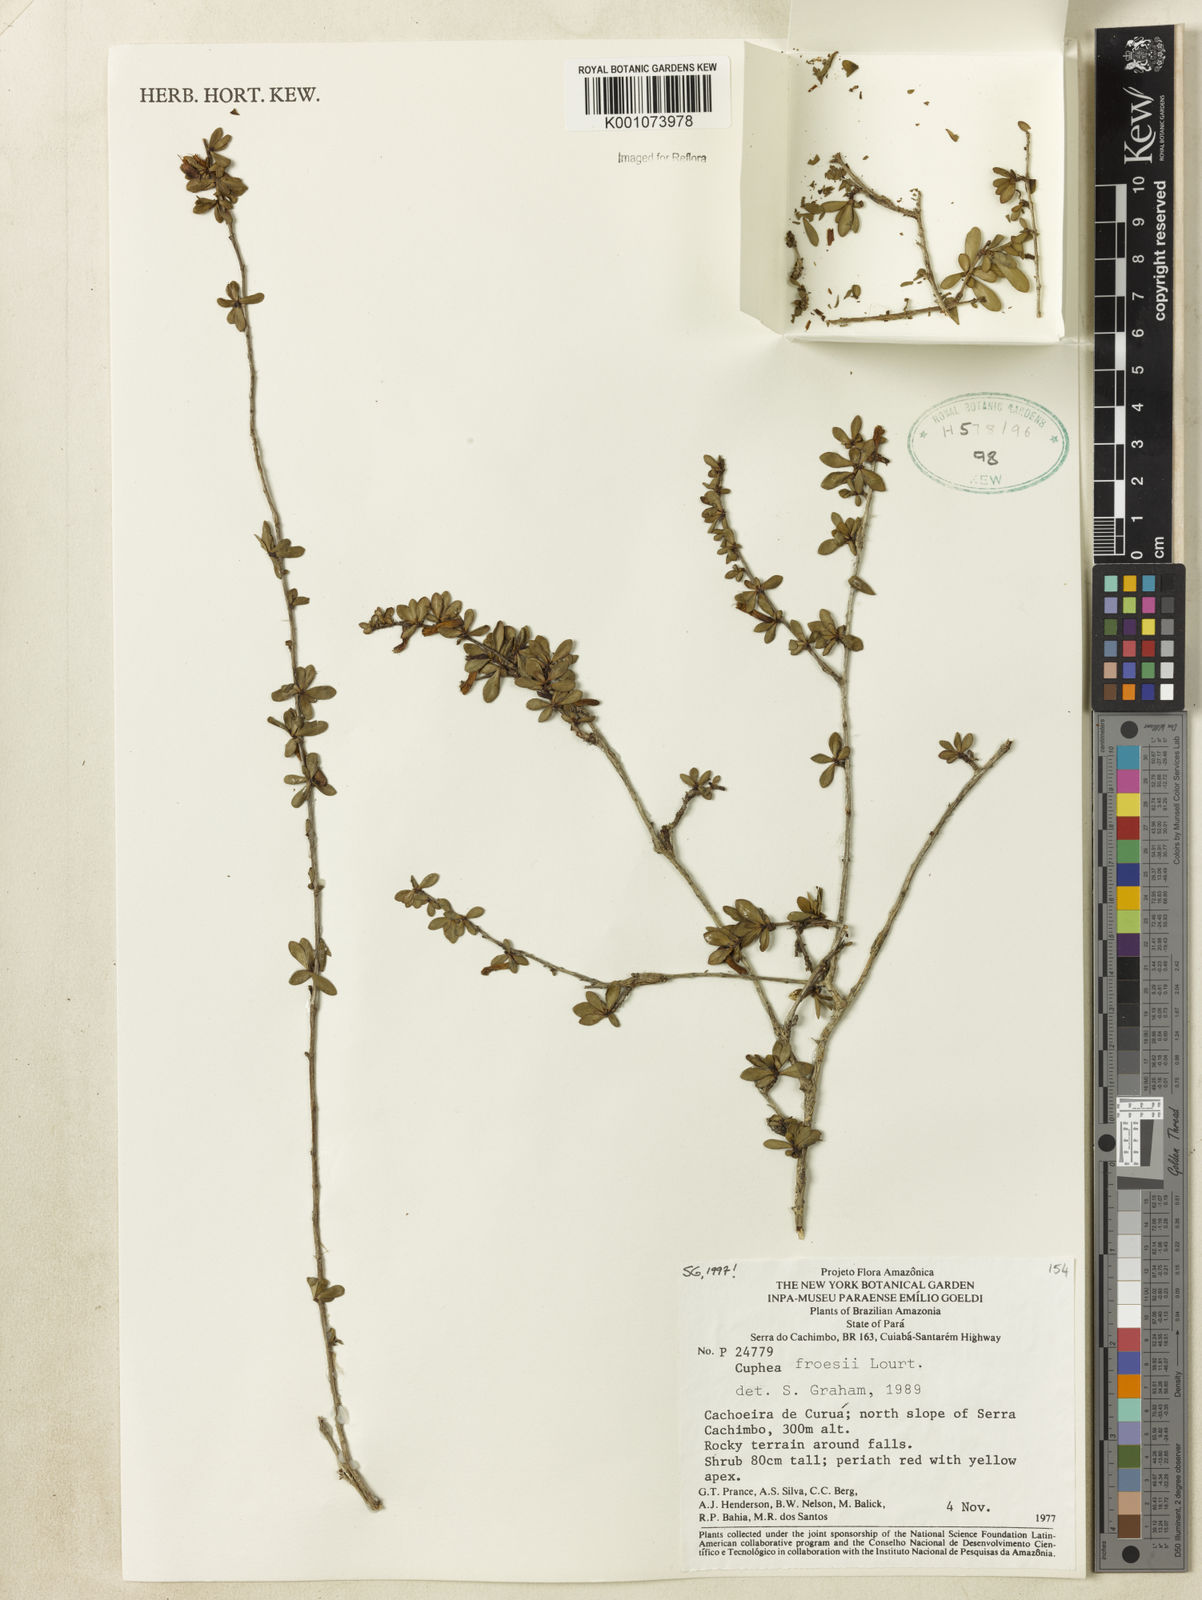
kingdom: Plantae
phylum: Tracheophyta
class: Magnoliopsida
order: Myrtales
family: Lythraceae
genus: Cuphea
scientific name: Cuphea froesii
